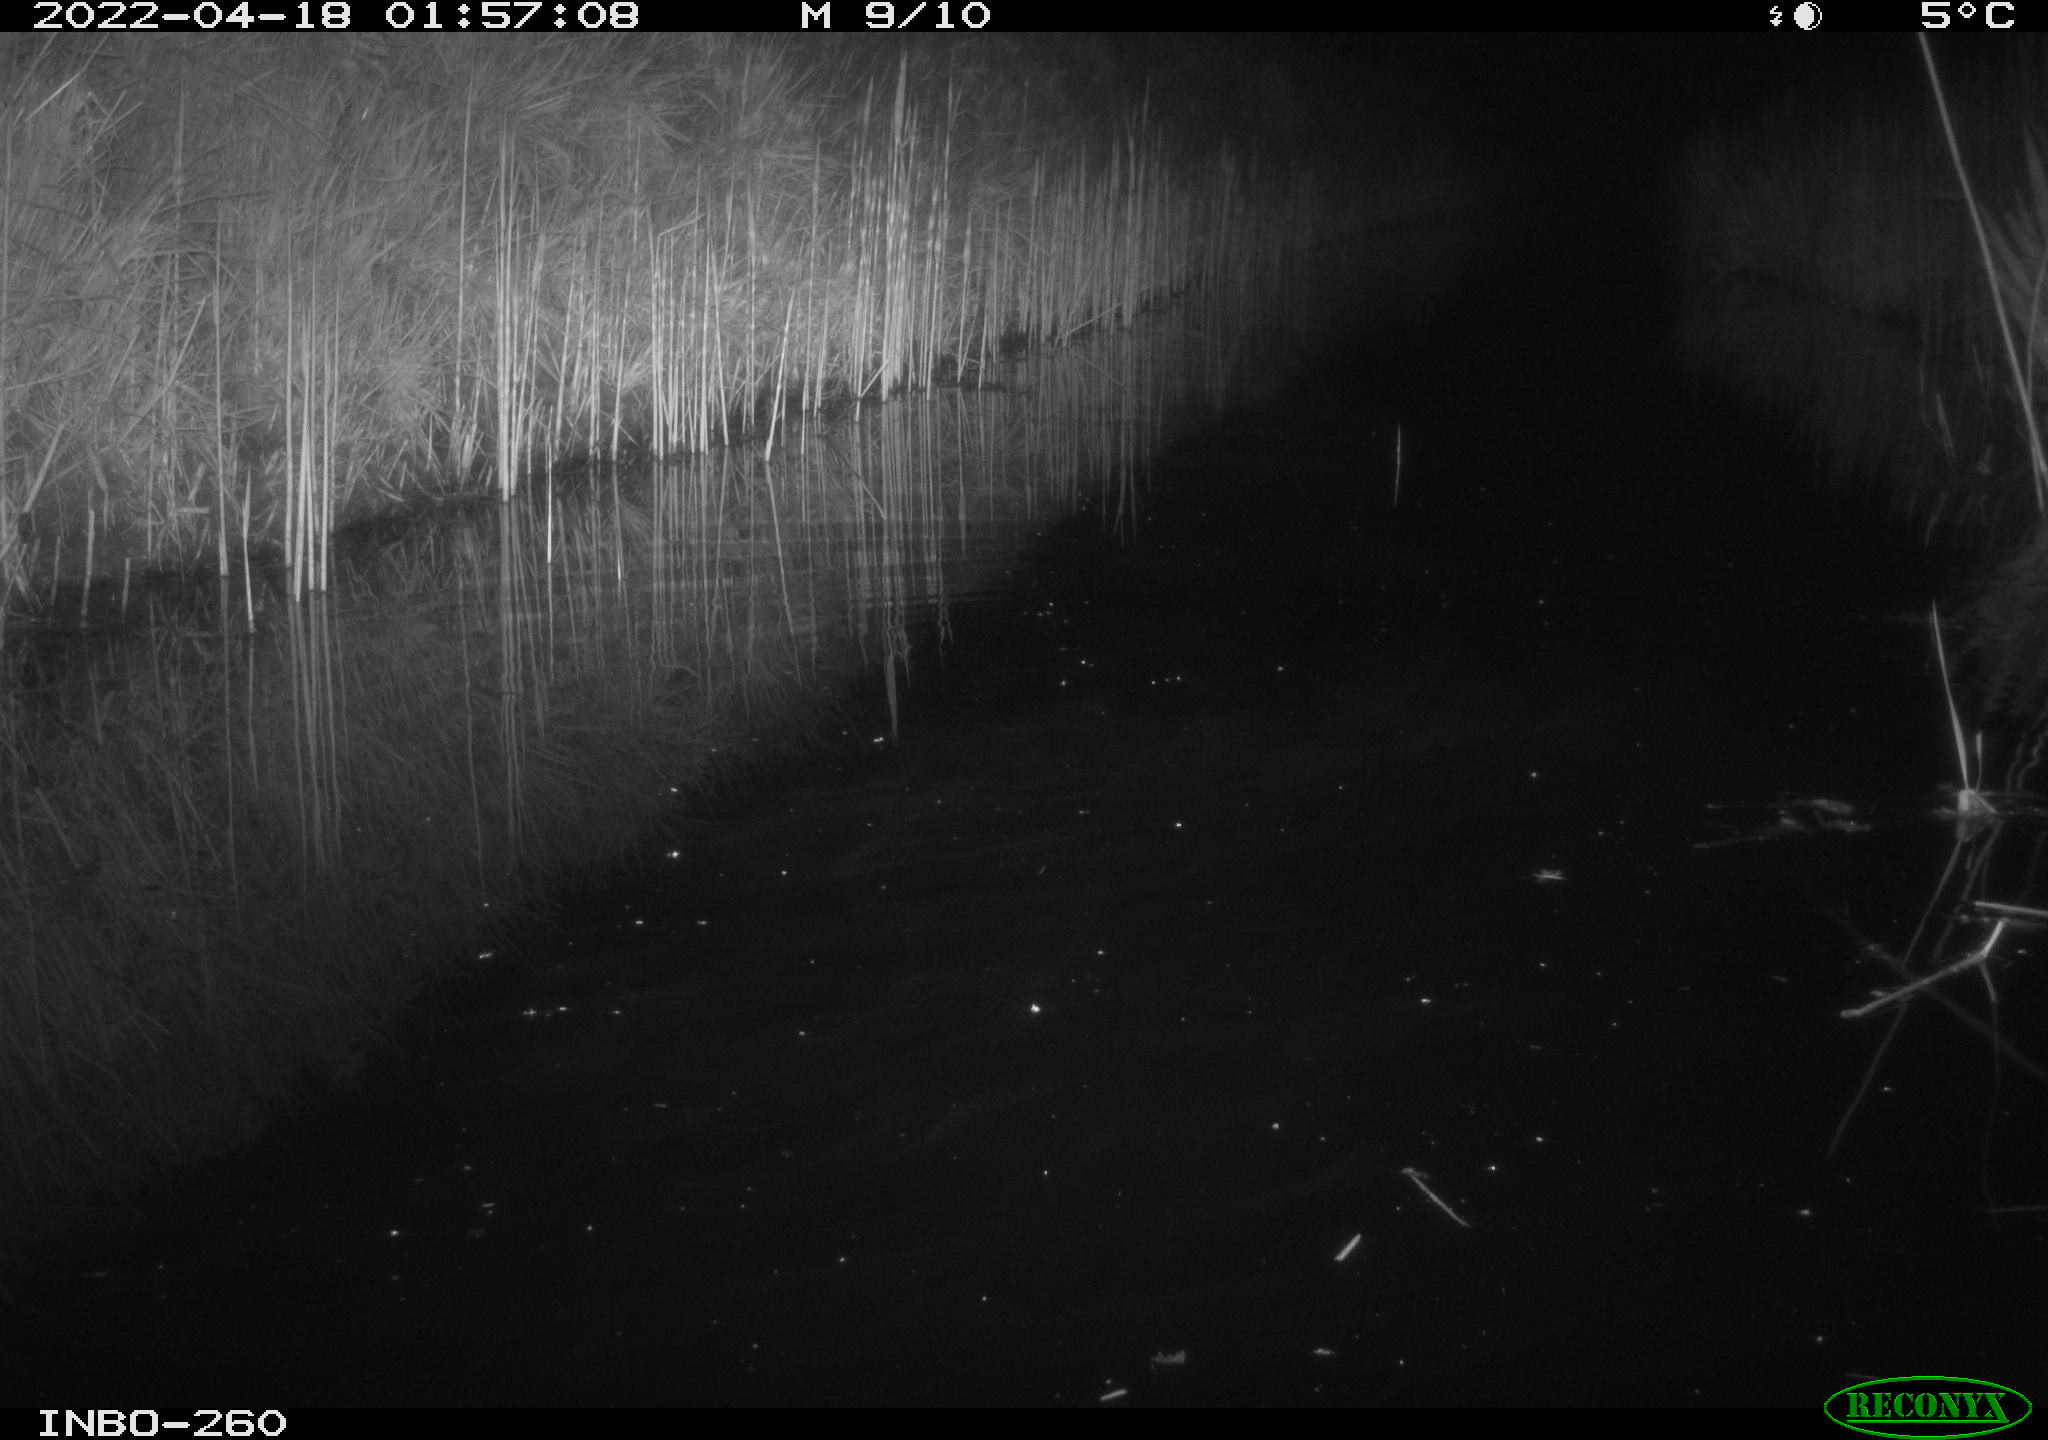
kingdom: Animalia
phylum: Chordata
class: Mammalia
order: Rodentia
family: Muridae
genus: Rattus
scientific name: Rattus norvegicus
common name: Brown rat
